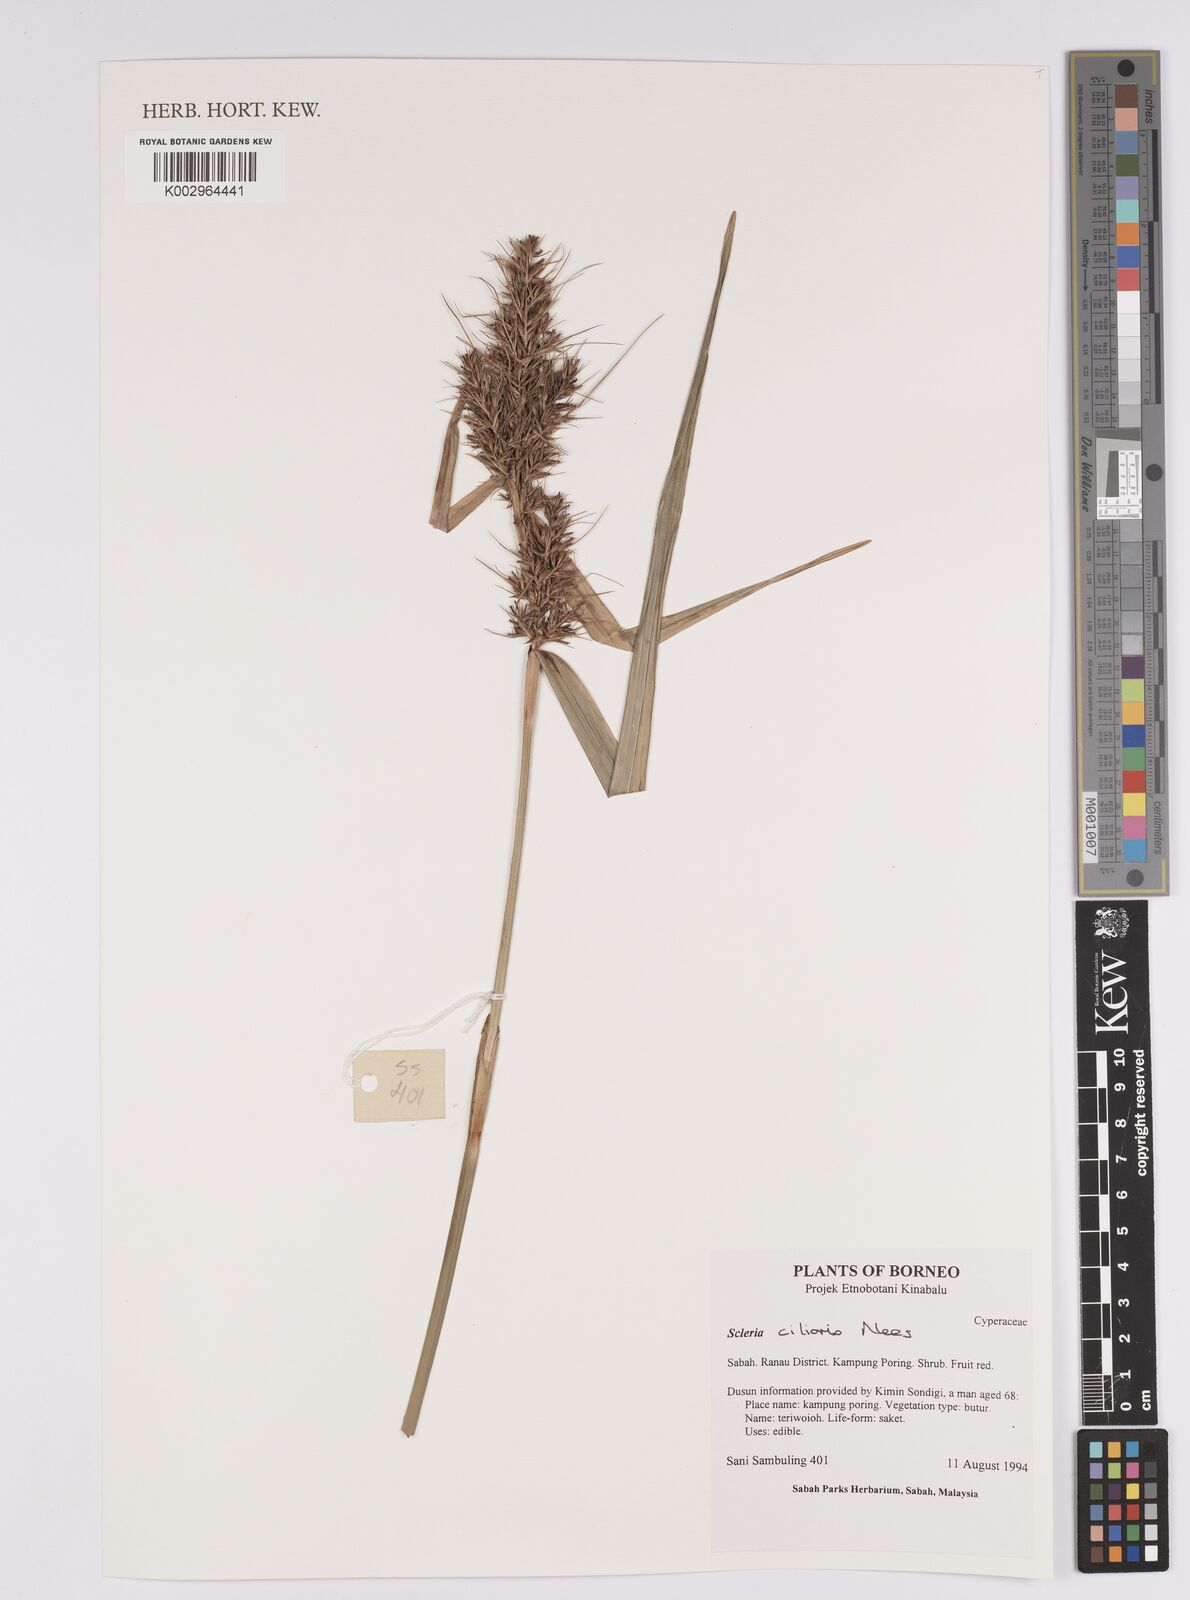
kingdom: Plantae
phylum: Tracheophyta
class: Liliopsida
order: Poales
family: Cyperaceae
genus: Scleria
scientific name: Scleria ciliaris
